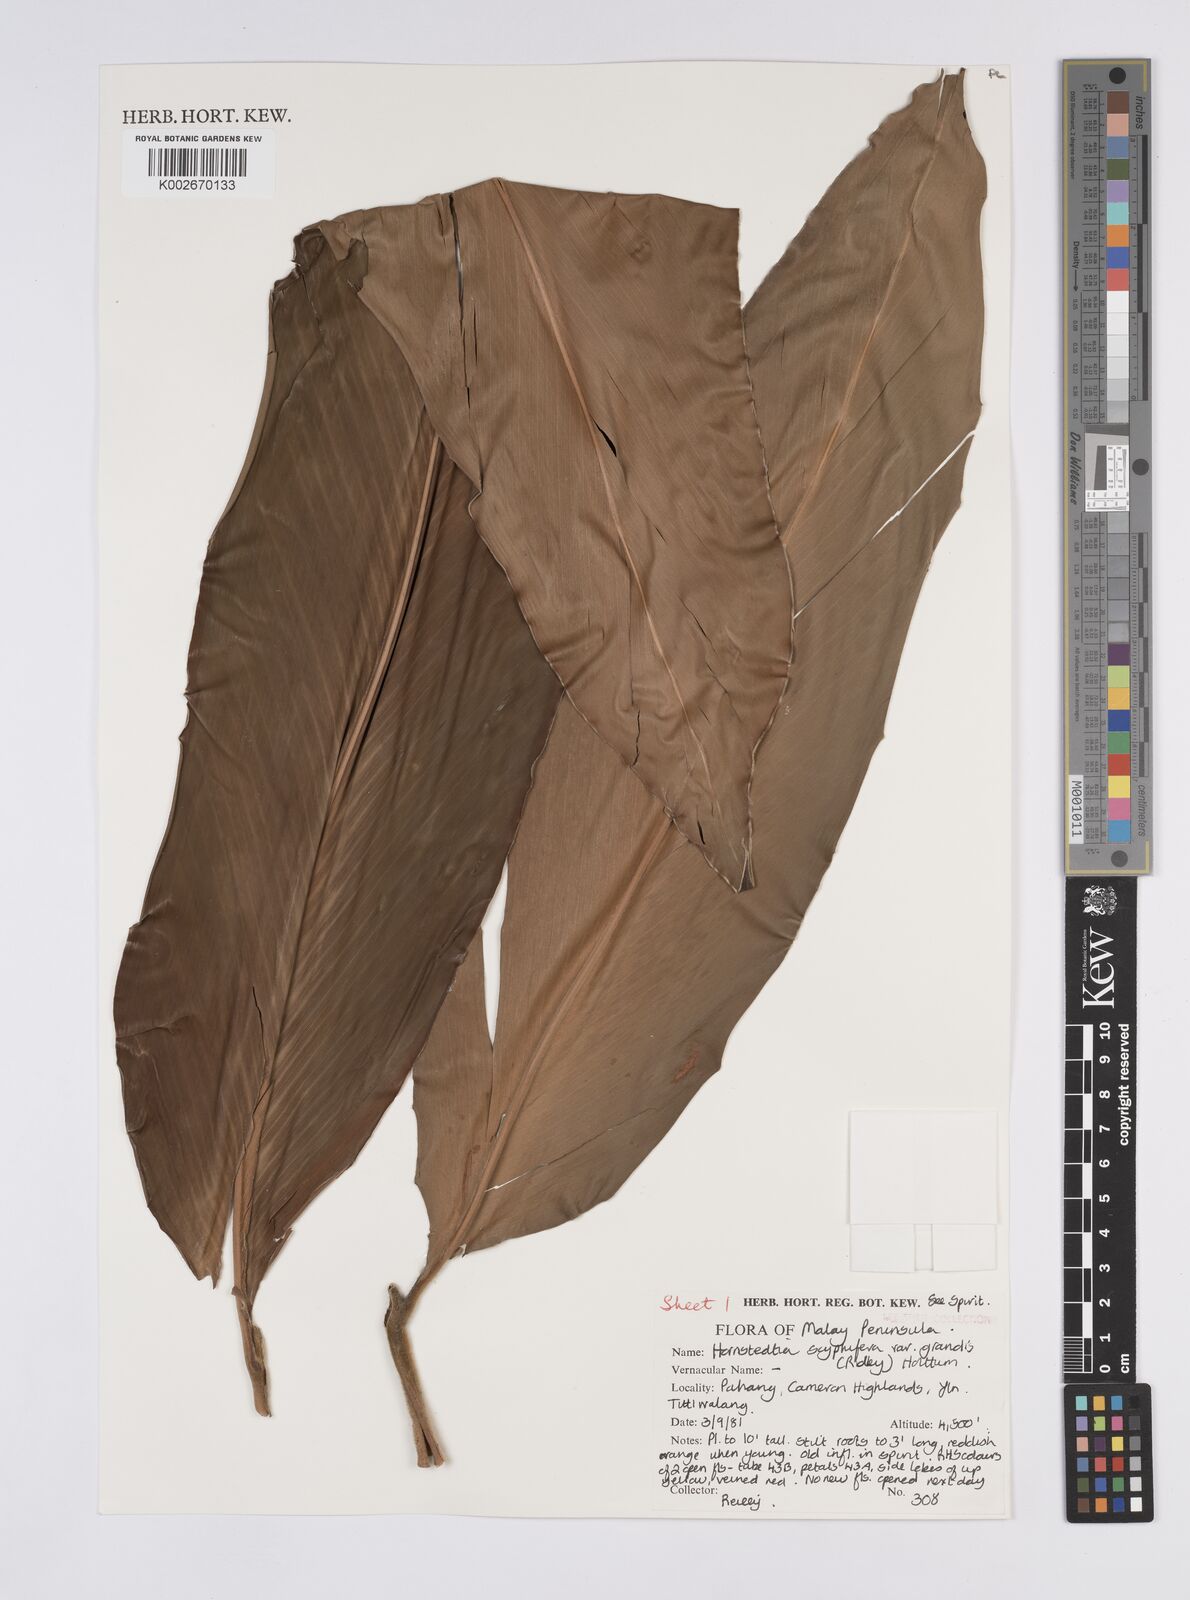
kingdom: Plantae
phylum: Tracheophyta
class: Liliopsida
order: Zingiberales
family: Zingiberaceae
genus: Hornstedtia
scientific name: Hornstedtia scyphifera
